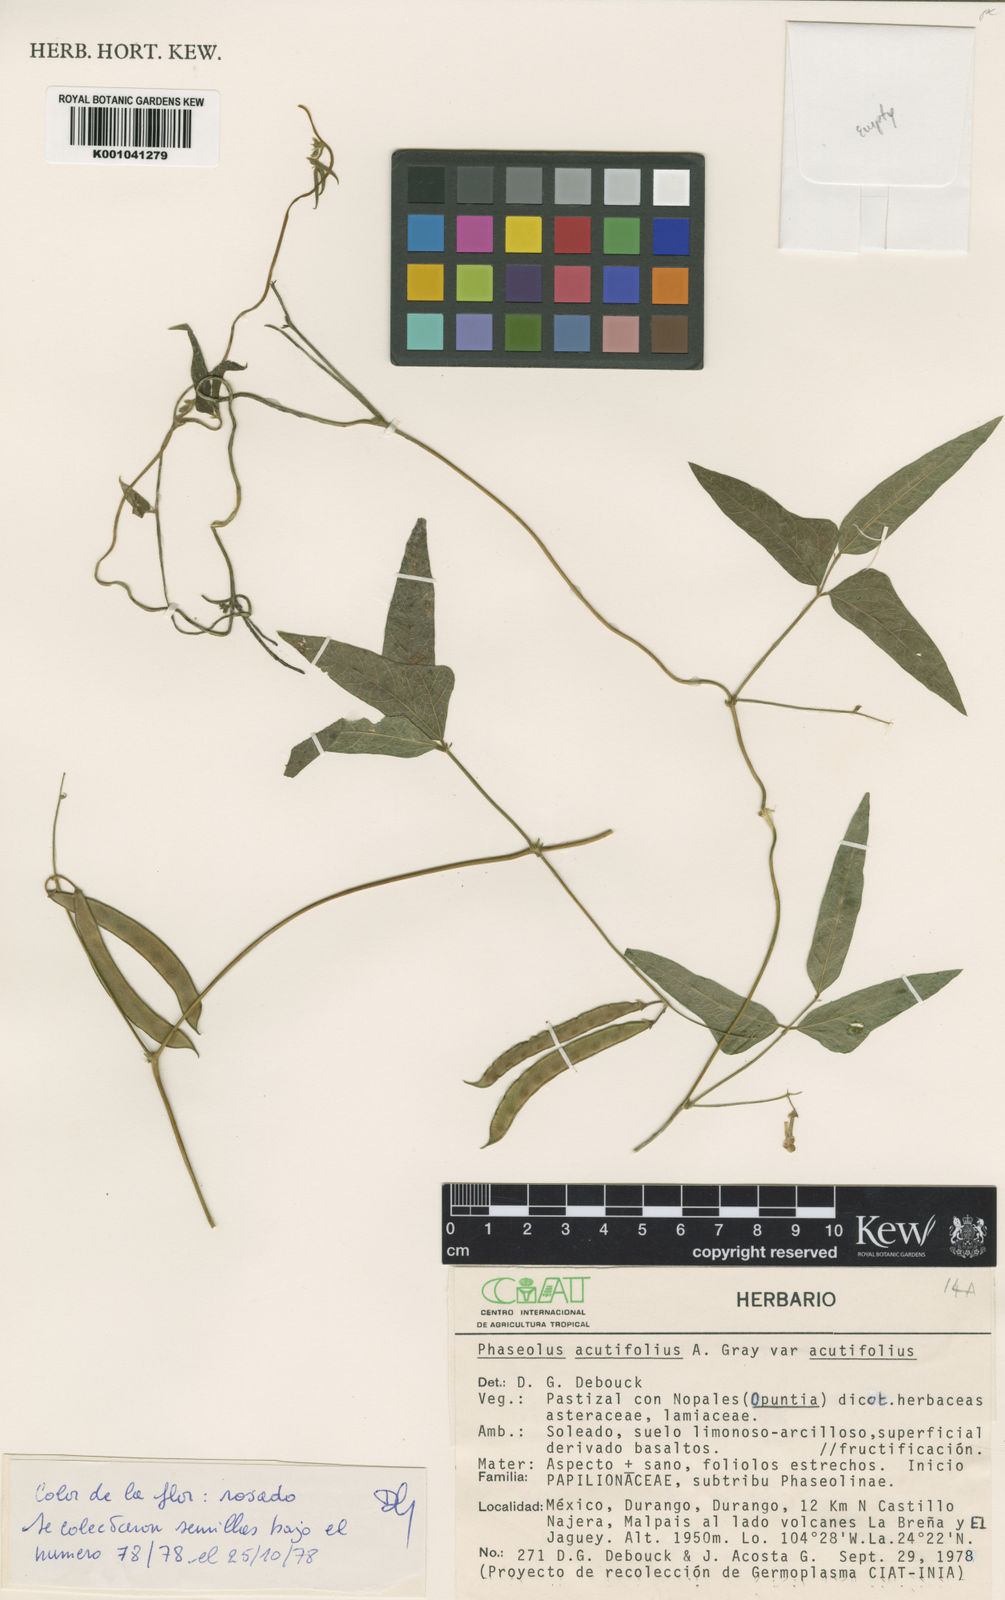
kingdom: Plantae
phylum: Tracheophyta
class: Magnoliopsida
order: Fabales
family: Fabaceae
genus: Phaseolus
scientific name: Phaseolus acutifolius
